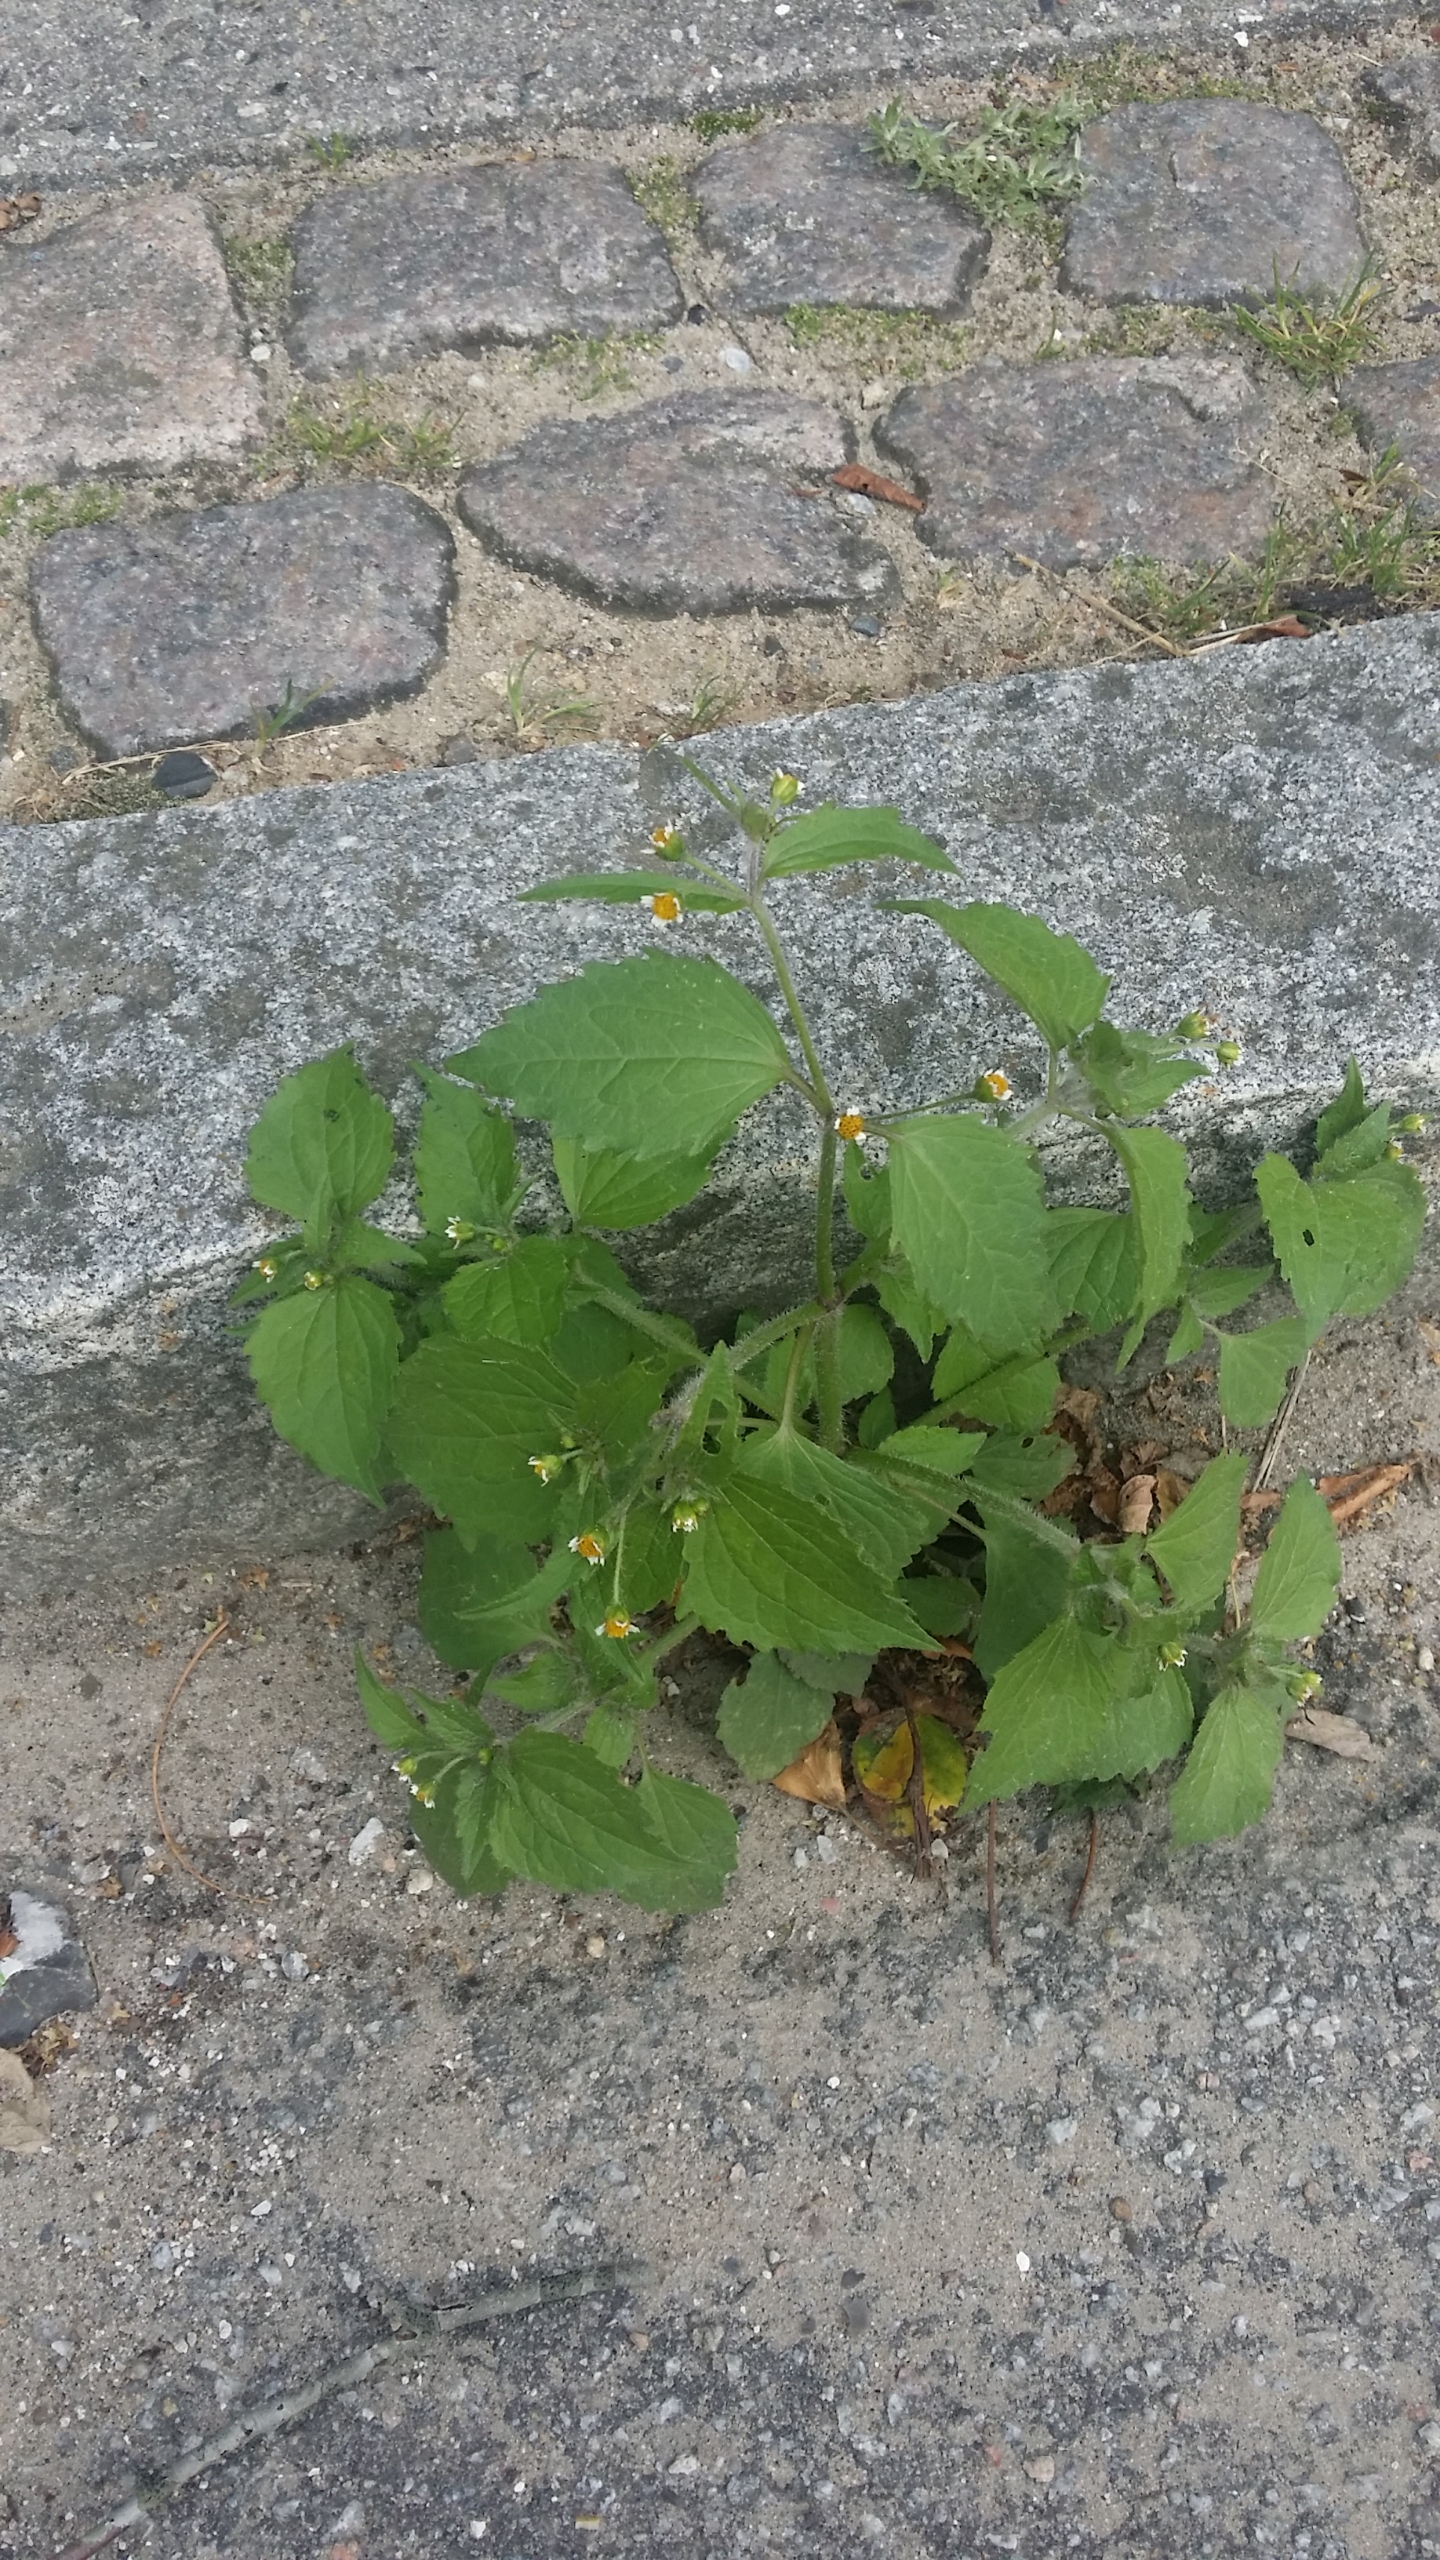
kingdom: Plantae
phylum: Tracheophyta
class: Magnoliopsida
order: Asterales
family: Asteraceae
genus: Galinsoga
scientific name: Galinsoga quadriradiata
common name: Kirtel-kortstråle
